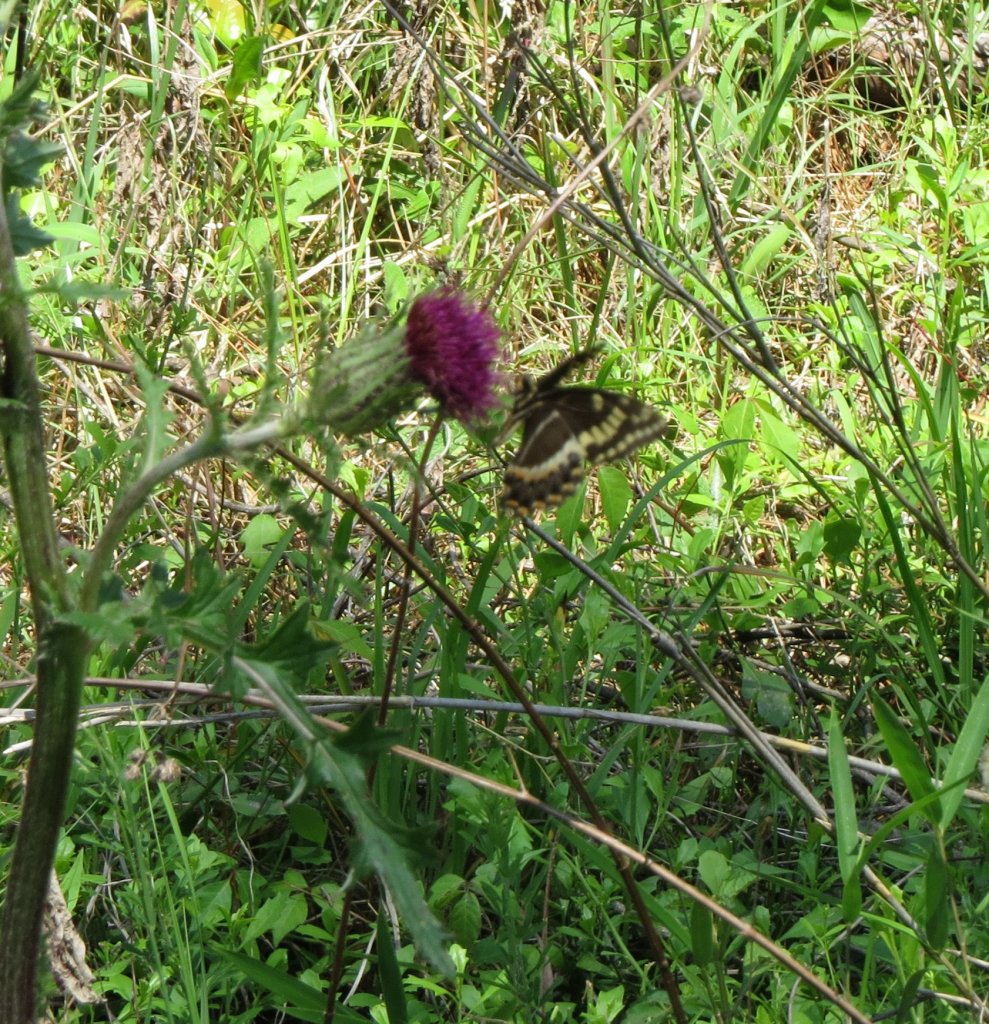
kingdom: Animalia
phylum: Arthropoda
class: Insecta
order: Lepidoptera
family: Papilionidae
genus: Pterourus
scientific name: Pterourus palamedes
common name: Palamedes Swallowtail
